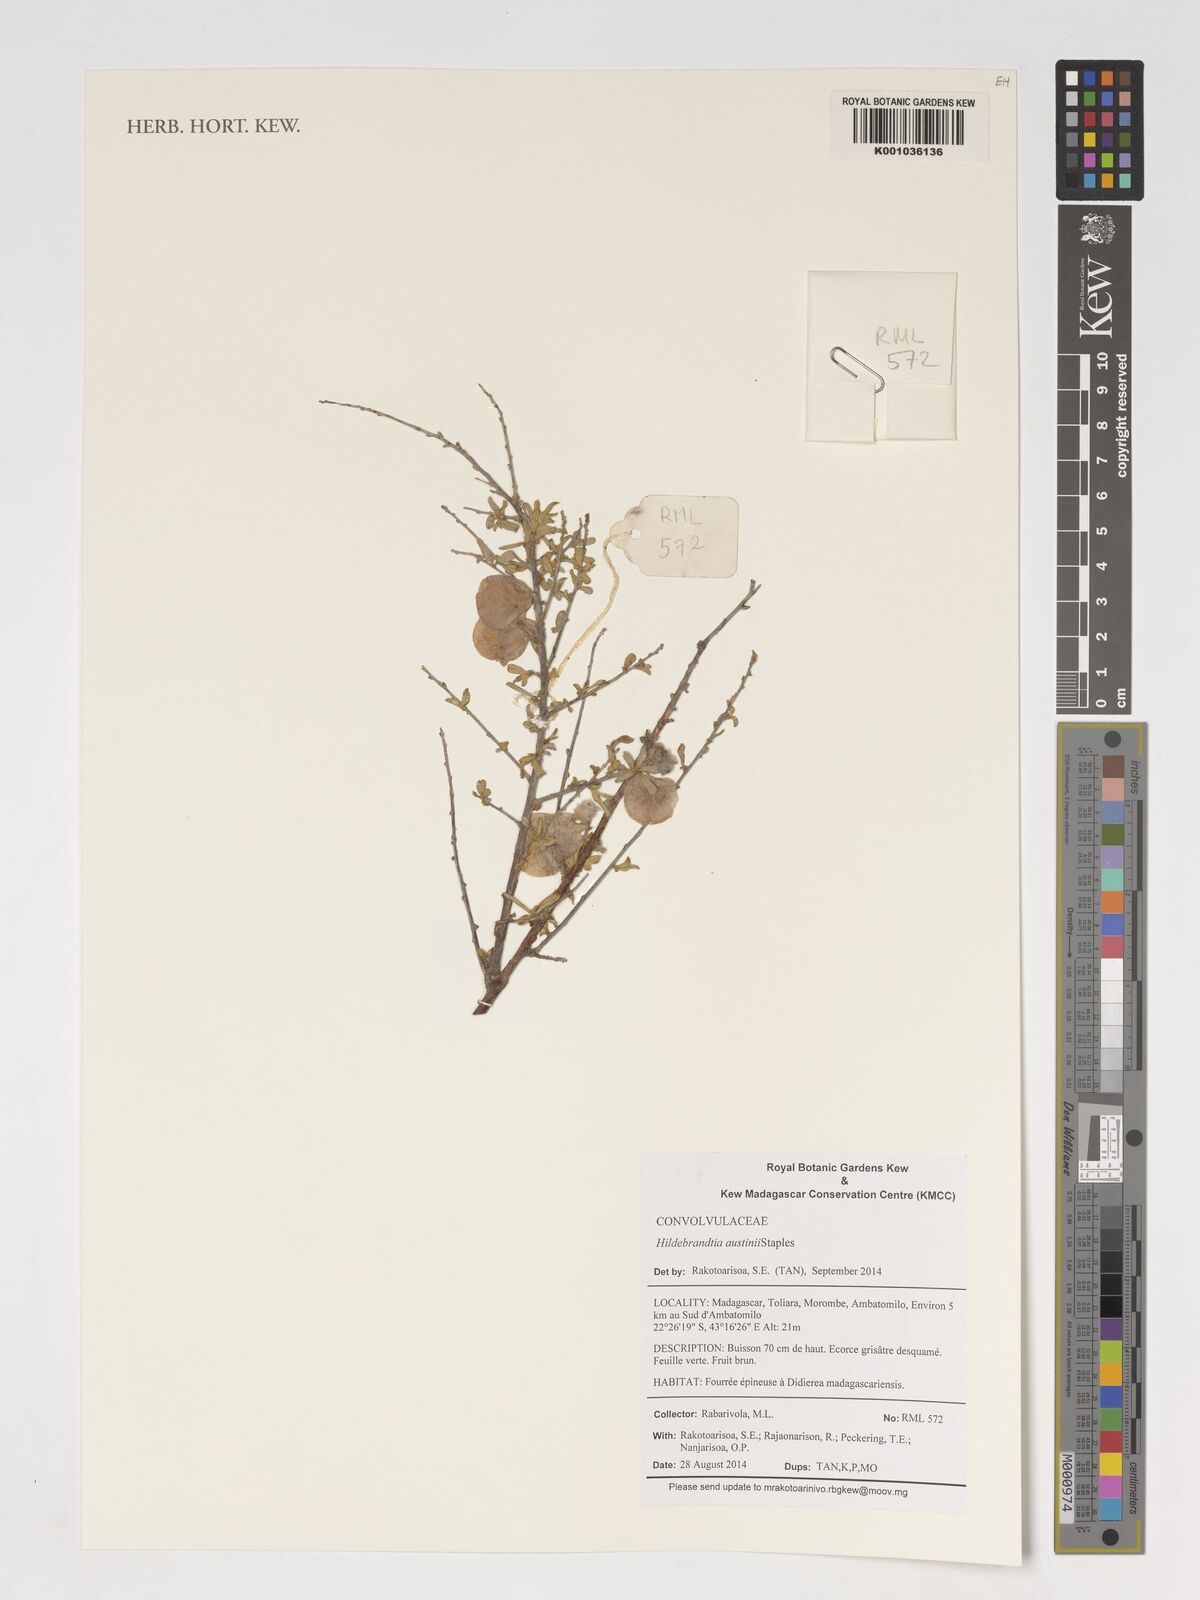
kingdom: Plantae
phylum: Tracheophyta
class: Magnoliopsida
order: Solanales
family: Convolvulaceae
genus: Hildebrandtia
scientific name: Hildebrandtia austinii
